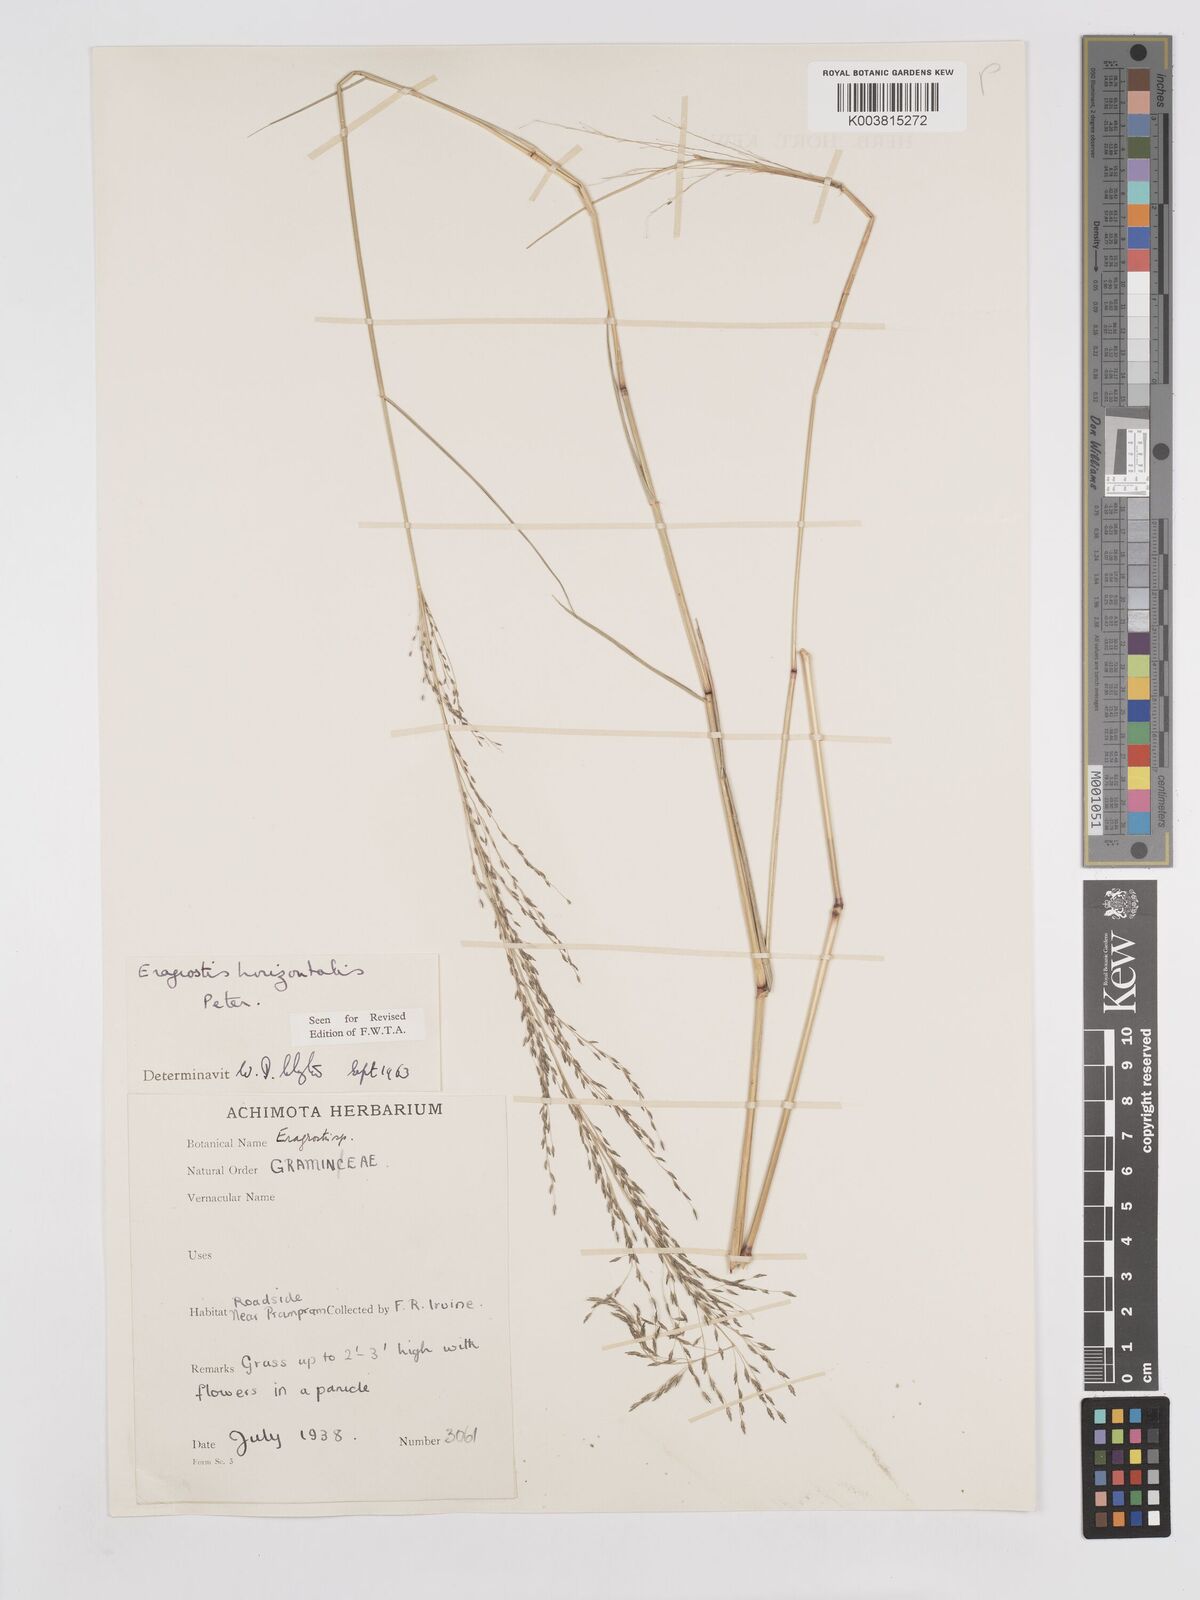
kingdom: Plantae
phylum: Tracheophyta
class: Liliopsida
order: Poales
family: Poaceae
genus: Eragrostis
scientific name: Eragrostis cylindriflora
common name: Cylinderflower lovegrass
